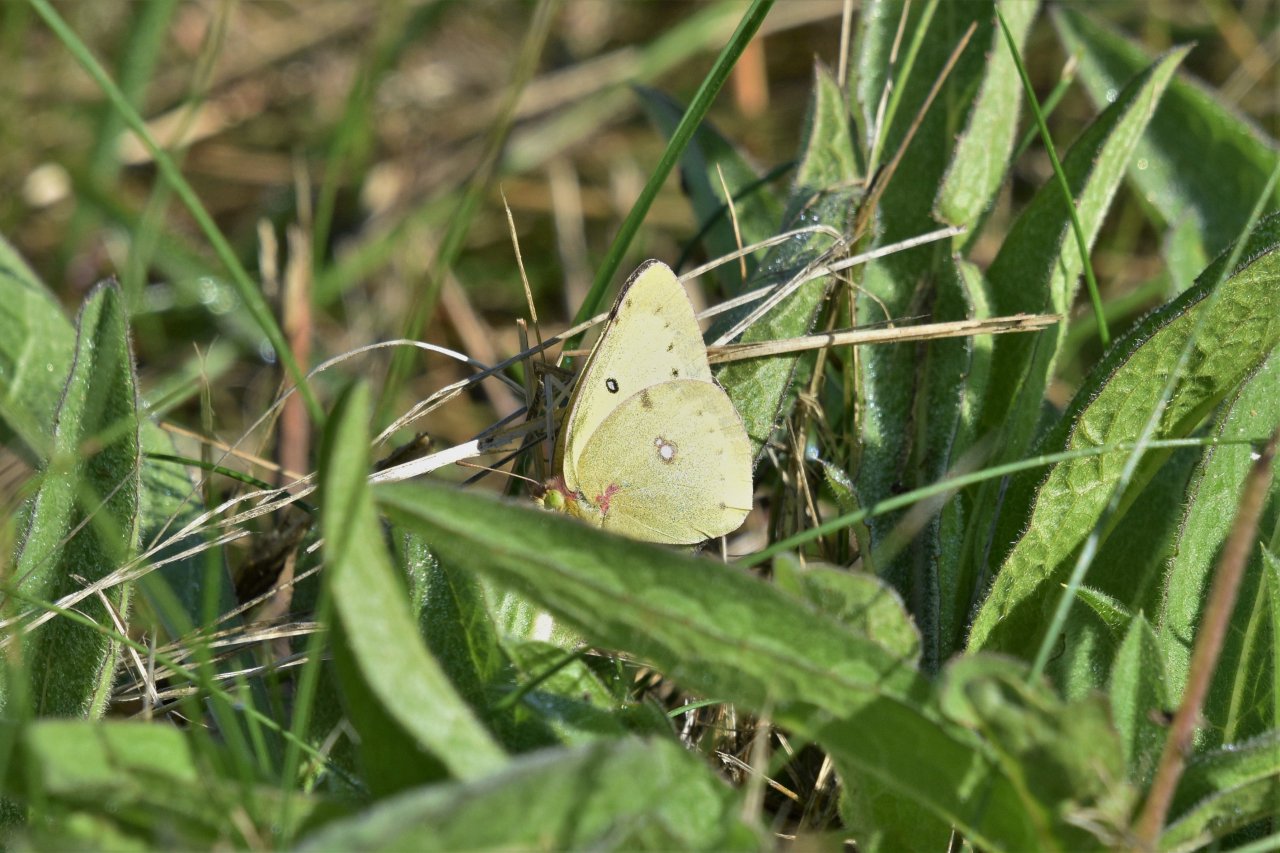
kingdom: Animalia
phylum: Arthropoda
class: Insecta
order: Lepidoptera
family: Pieridae
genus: Colias
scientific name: Colias philodice
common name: Clouded Sulphur
